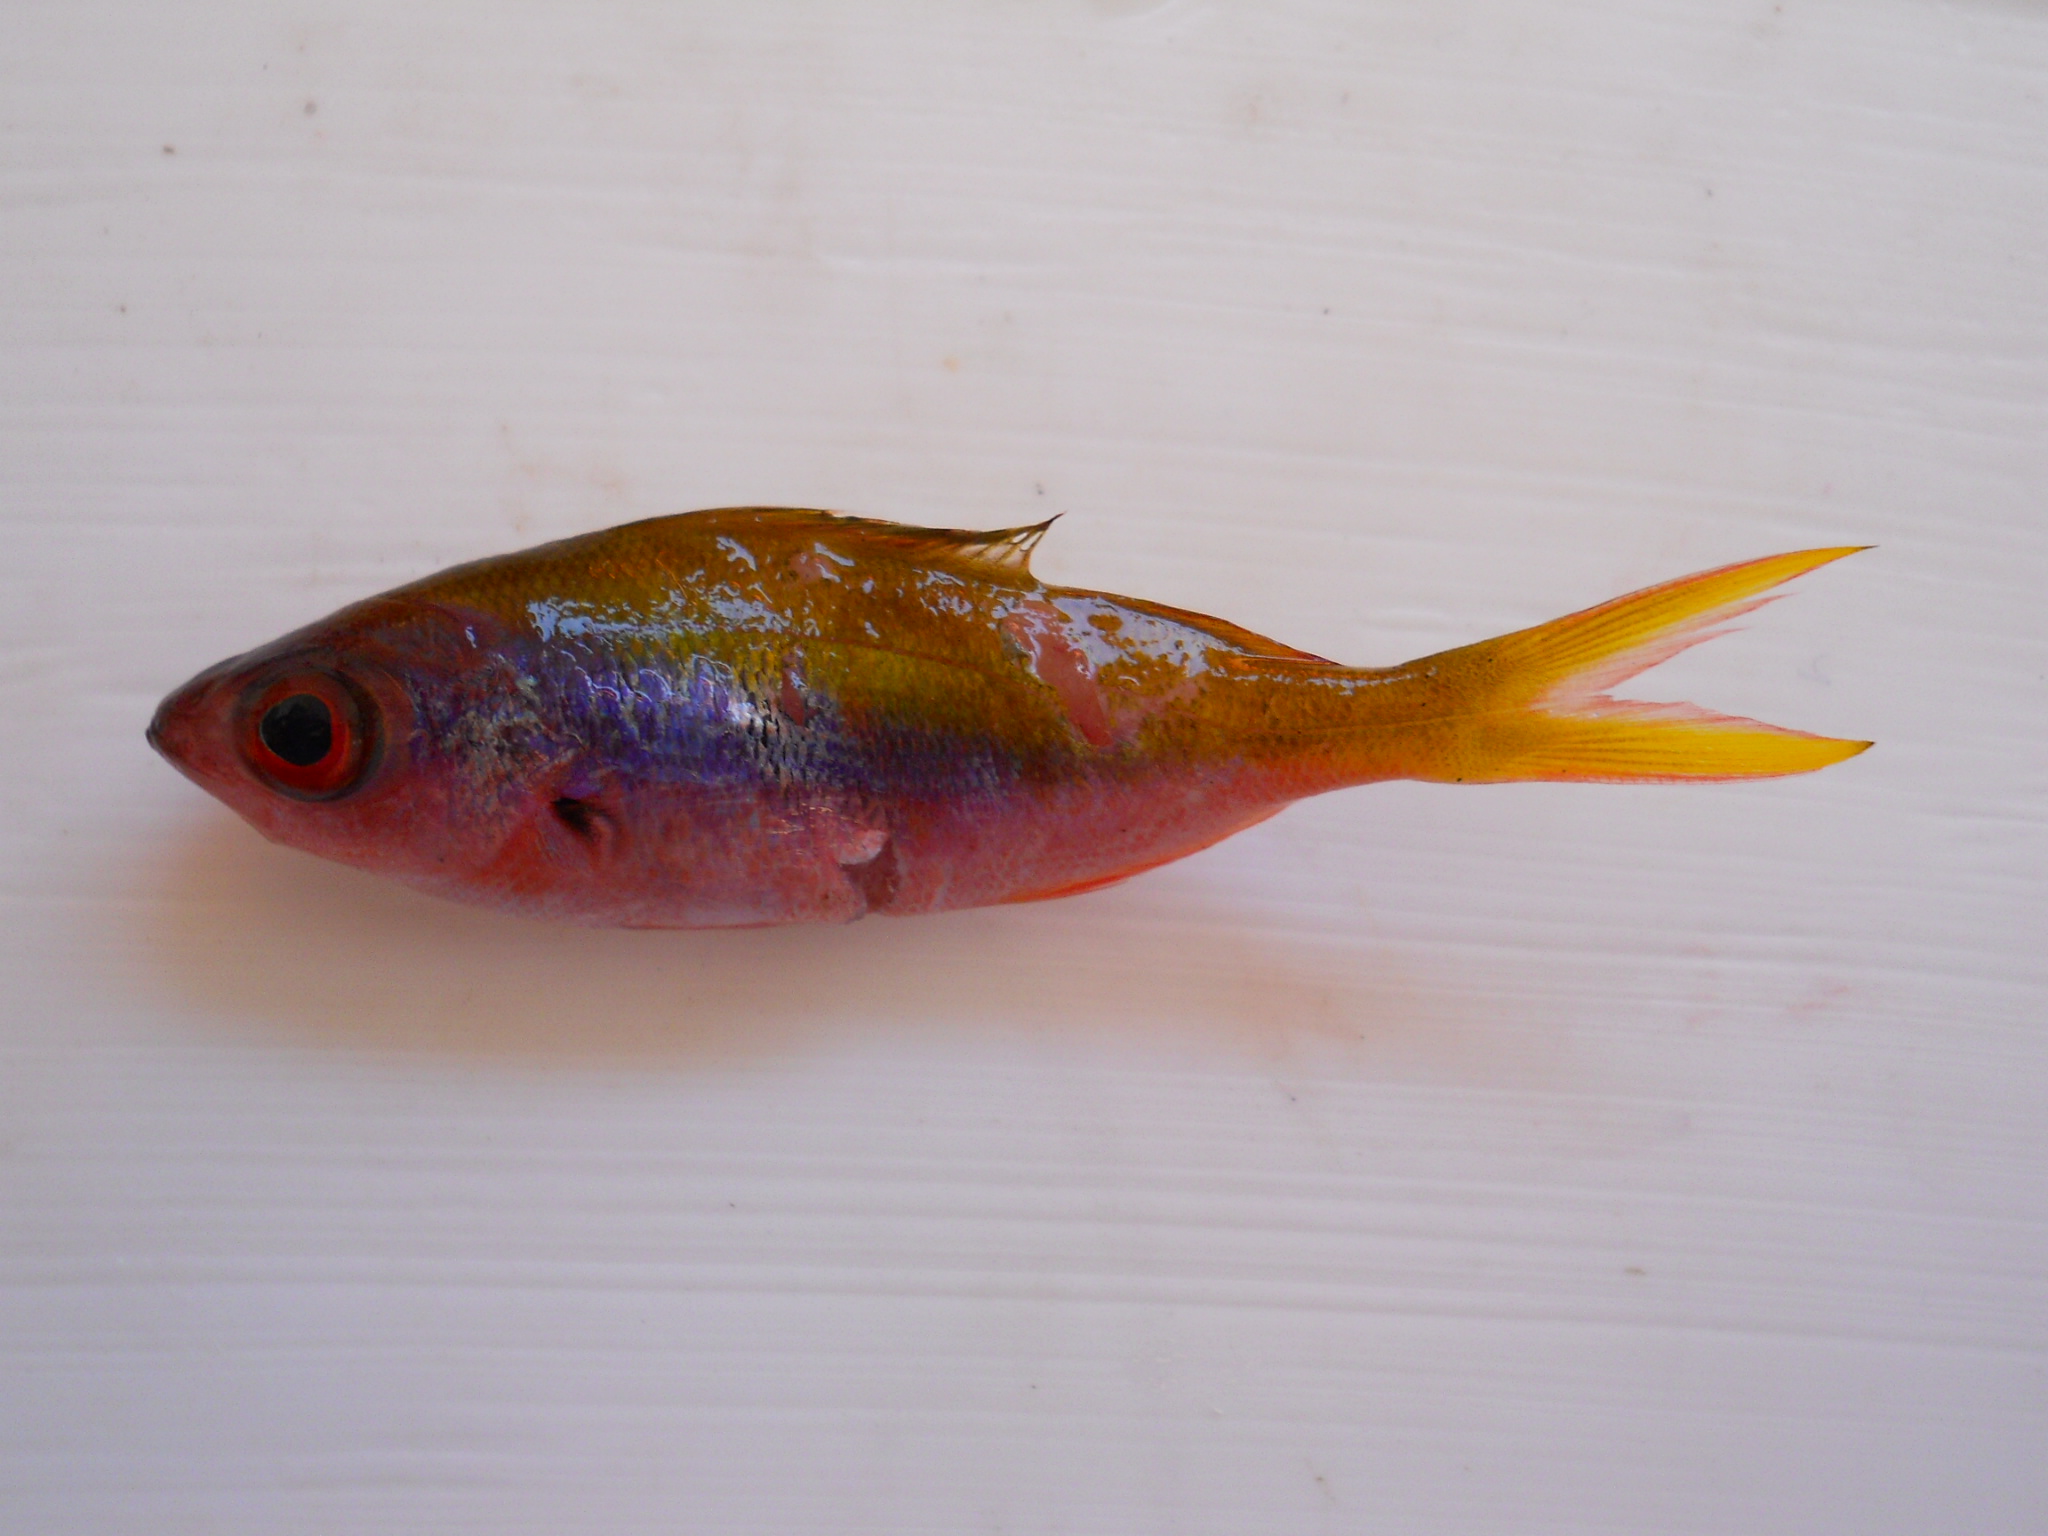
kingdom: Animalia
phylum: Chordata
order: Perciformes
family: Caesionidae
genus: Caesio
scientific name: Caesio xanthonota
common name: Yellowback fusilier
